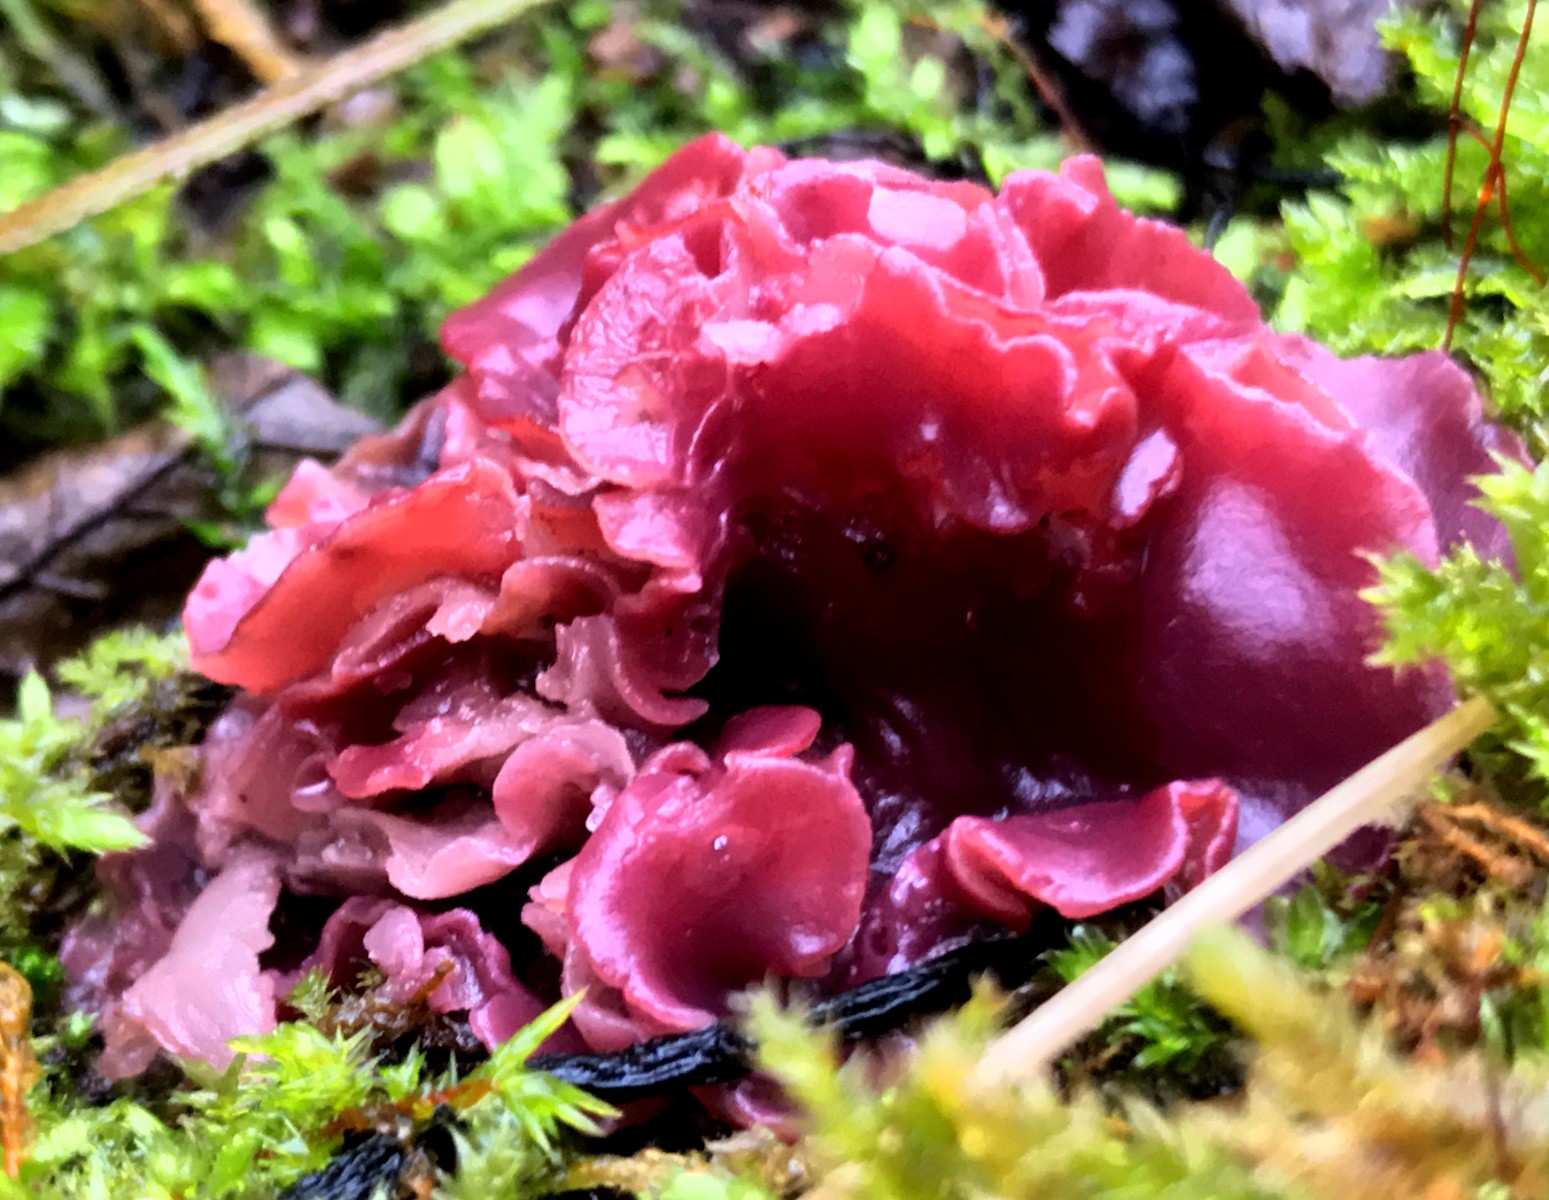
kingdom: Fungi
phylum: Ascomycota
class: Leotiomycetes
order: Helotiales
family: Gelatinodiscaceae
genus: Ascocoryne
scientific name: Ascocoryne cylichnium
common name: stor sejskive
